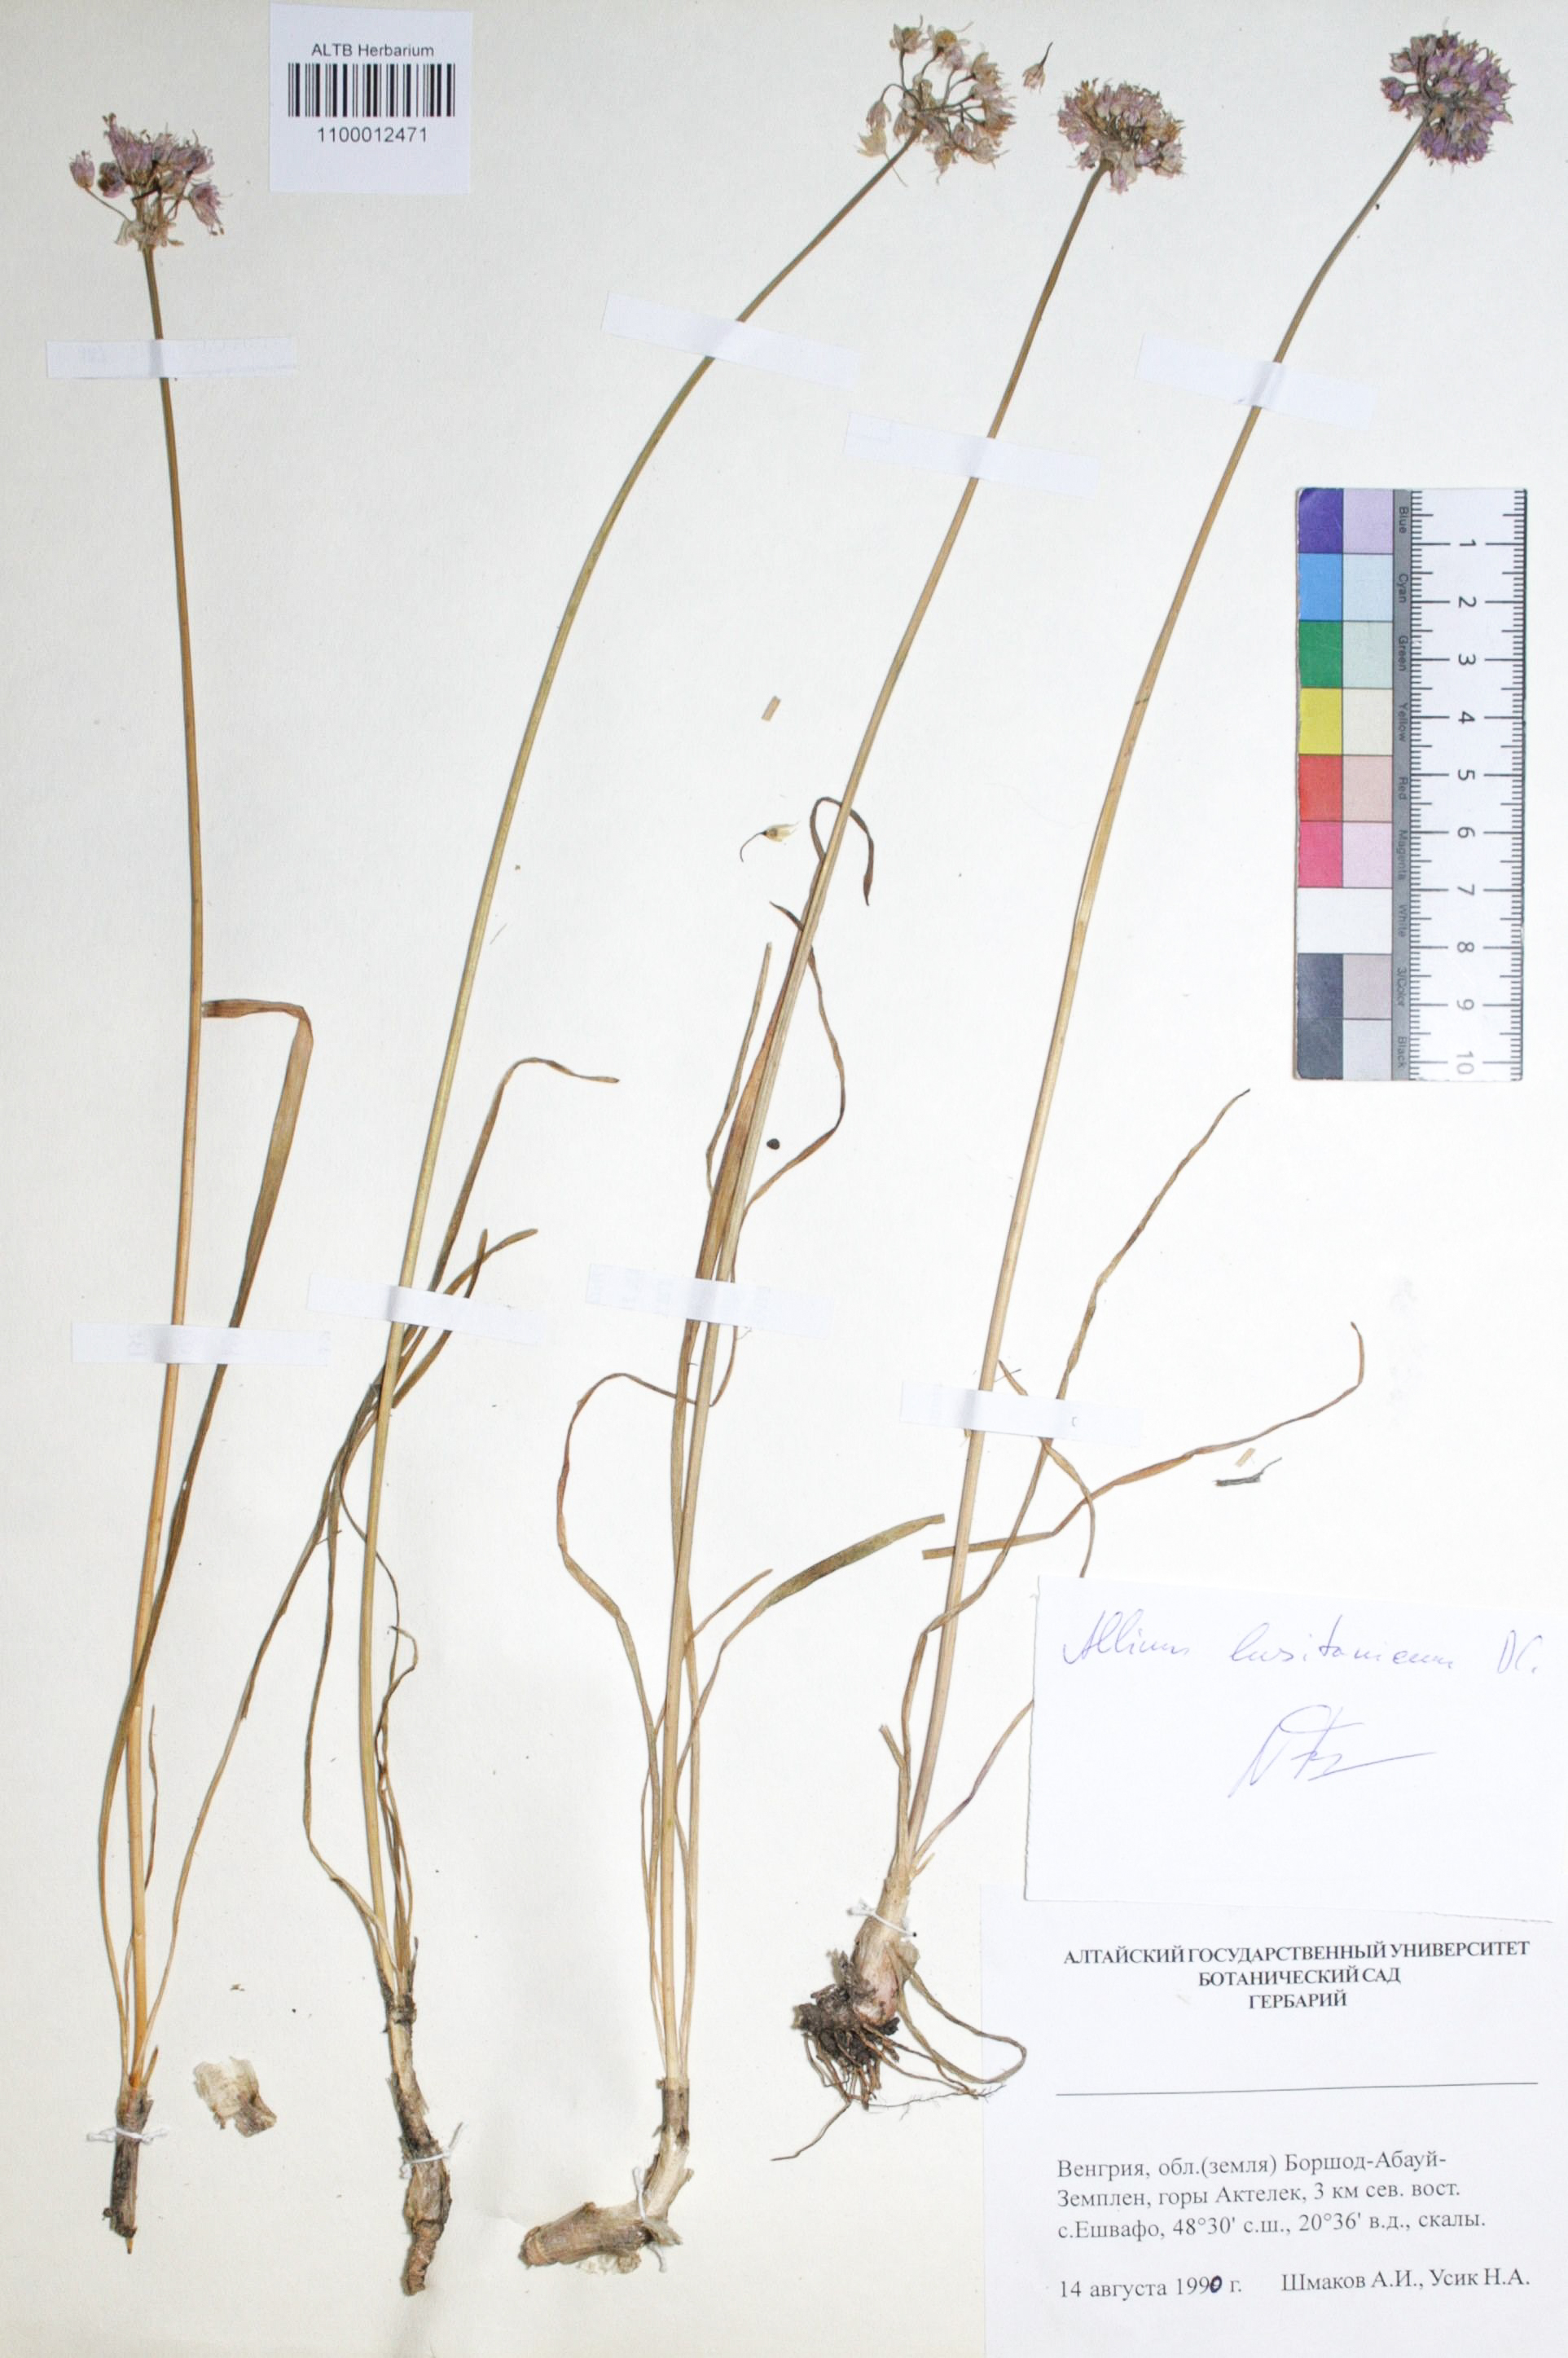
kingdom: Plantae
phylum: Tracheophyta
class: Liliopsida
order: Asparagales
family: Amaryllidaceae
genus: Allium
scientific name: Allium lusitanicum
